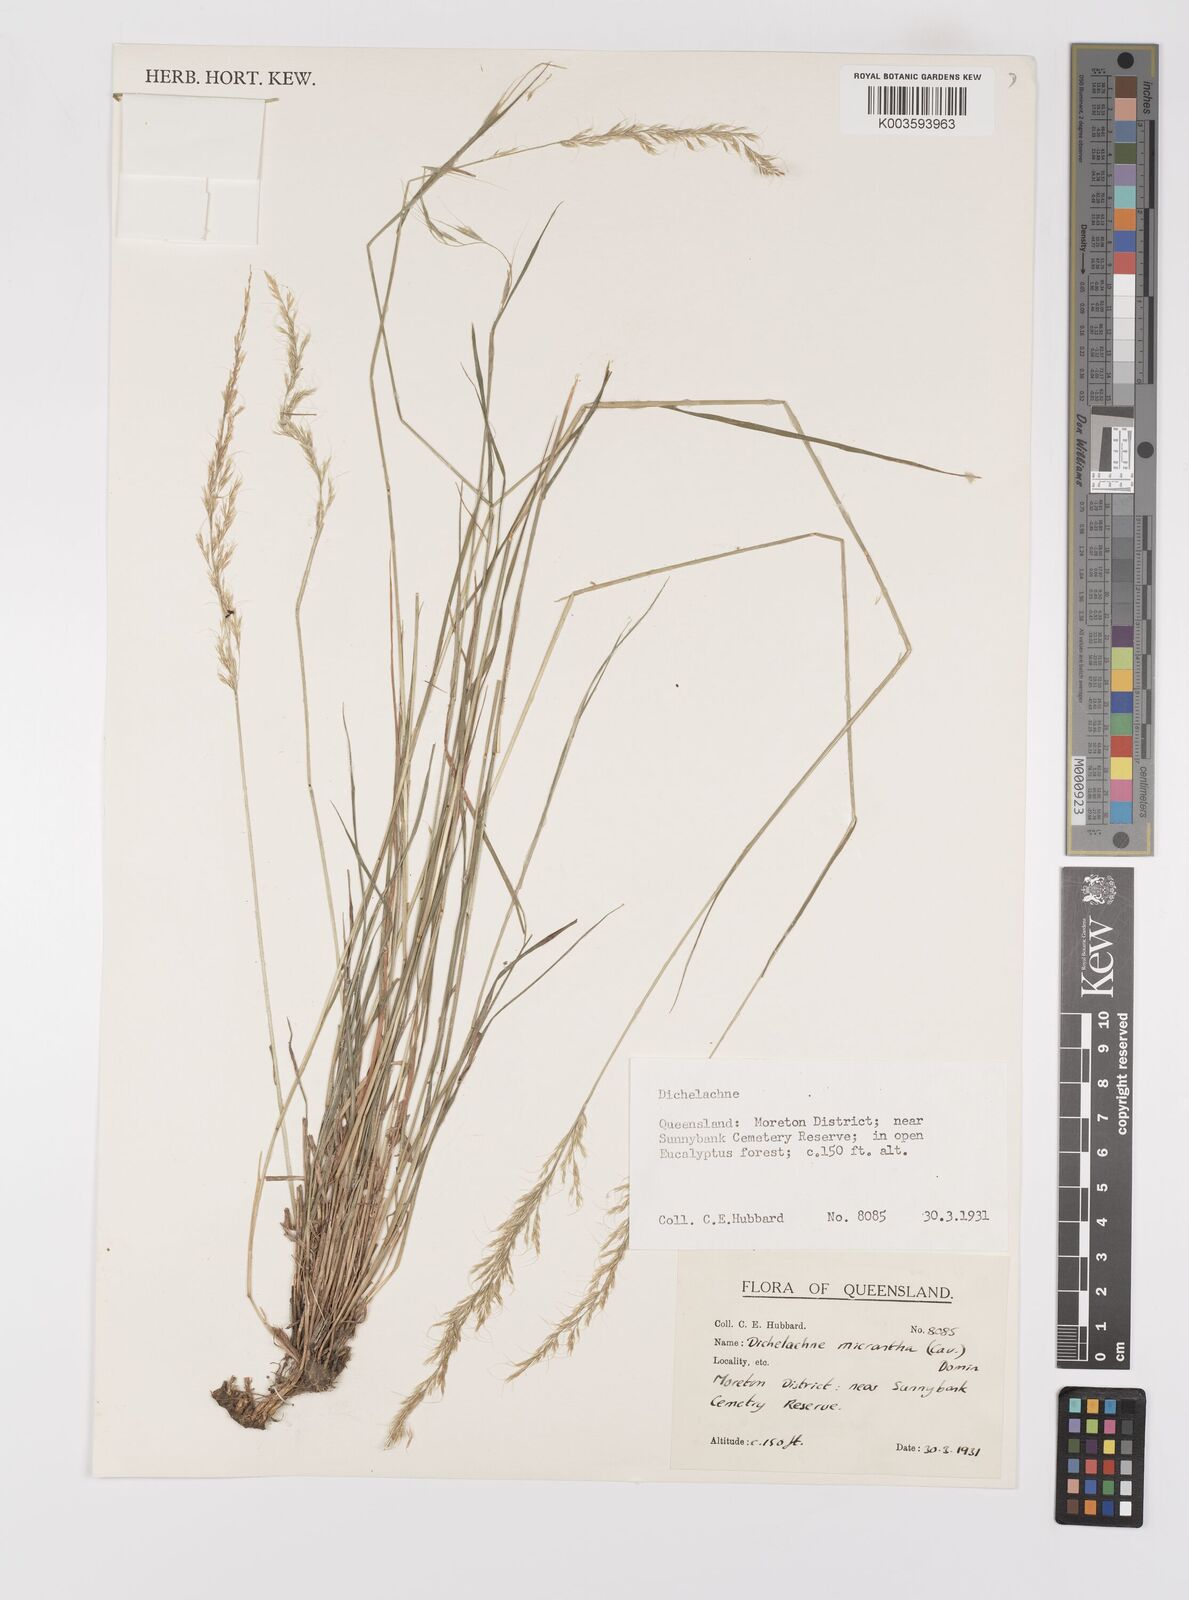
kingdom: Plantae
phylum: Tracheophyta
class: Liliopsida
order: Poales
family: Poaceae
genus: Dichelachne
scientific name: Dichelachne micrantha
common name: Plumegrass
